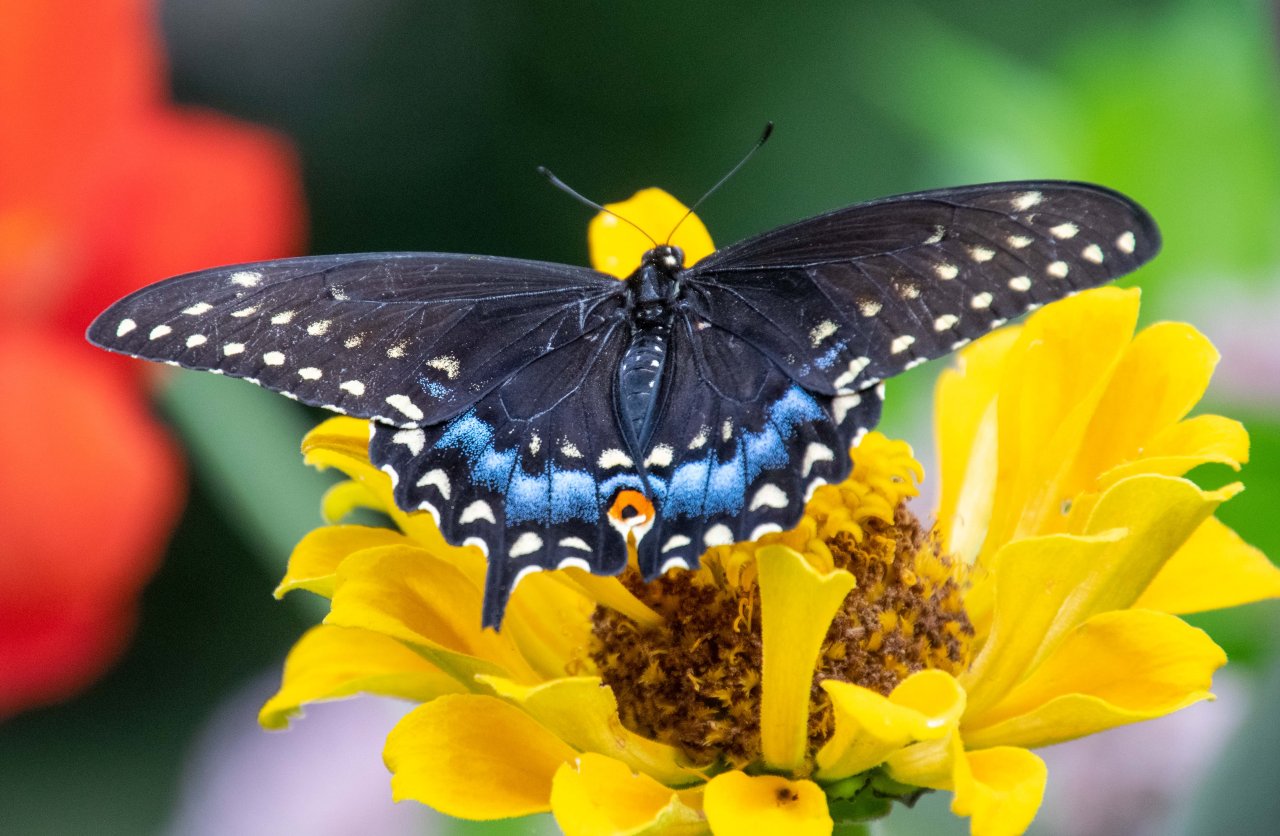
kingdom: Animalia
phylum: Arthropoda
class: Insecta
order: Lepidoptera
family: Papilionidae
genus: Papilio
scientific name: Papilio polyxenes
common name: Black Swallowtail
